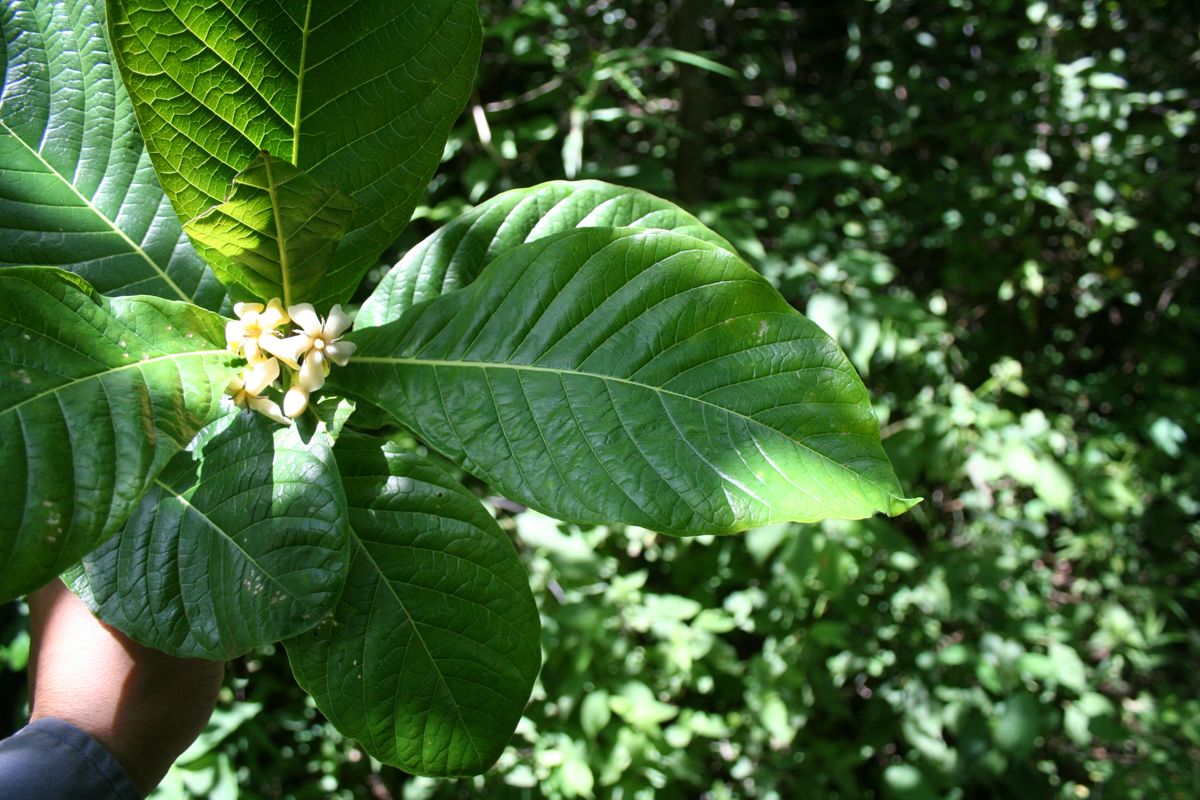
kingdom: Plantae
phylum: Tracheophyta
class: Magnoliopsida
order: Gentianales
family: Rubiaceae
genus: Genipa
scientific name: Genipa americana
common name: Genipap
